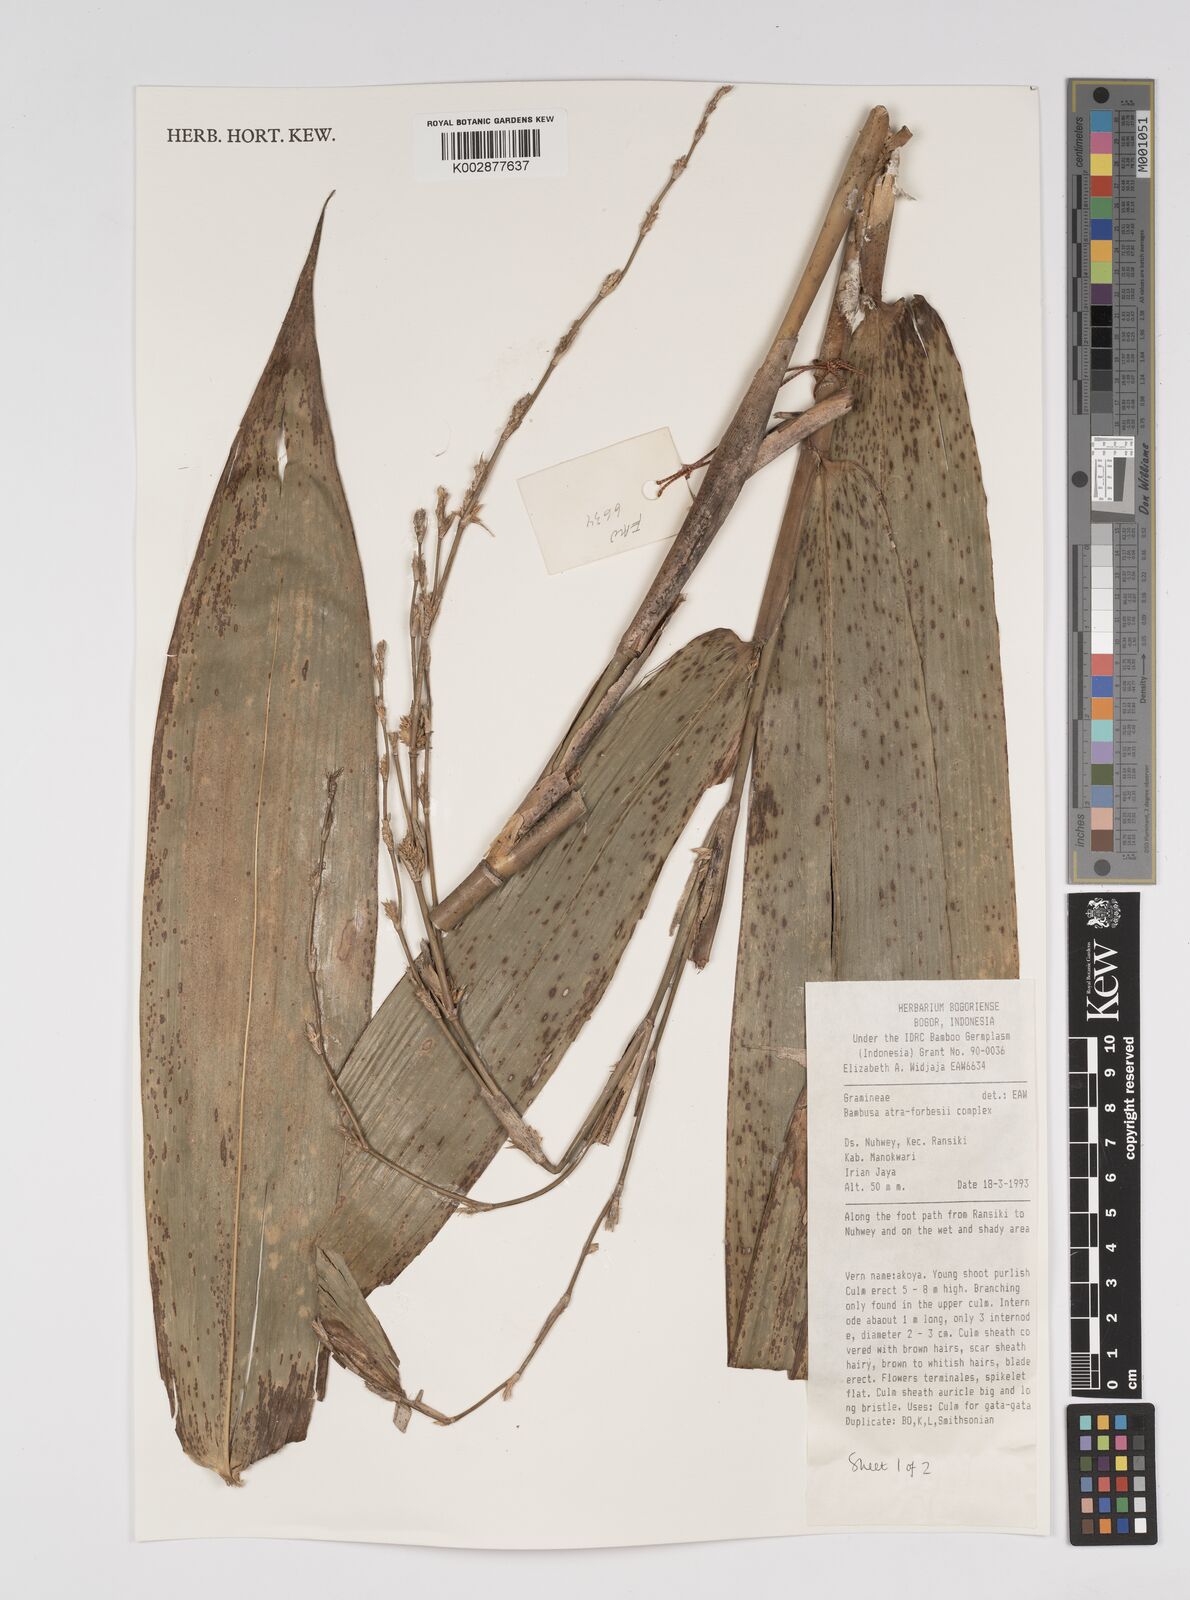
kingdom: Plantae
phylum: Tracheophyta
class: Liliopsida
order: Poales
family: Poaceae
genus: Bambusa
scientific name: Bambusa bambos
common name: Indian thorny bamboo
